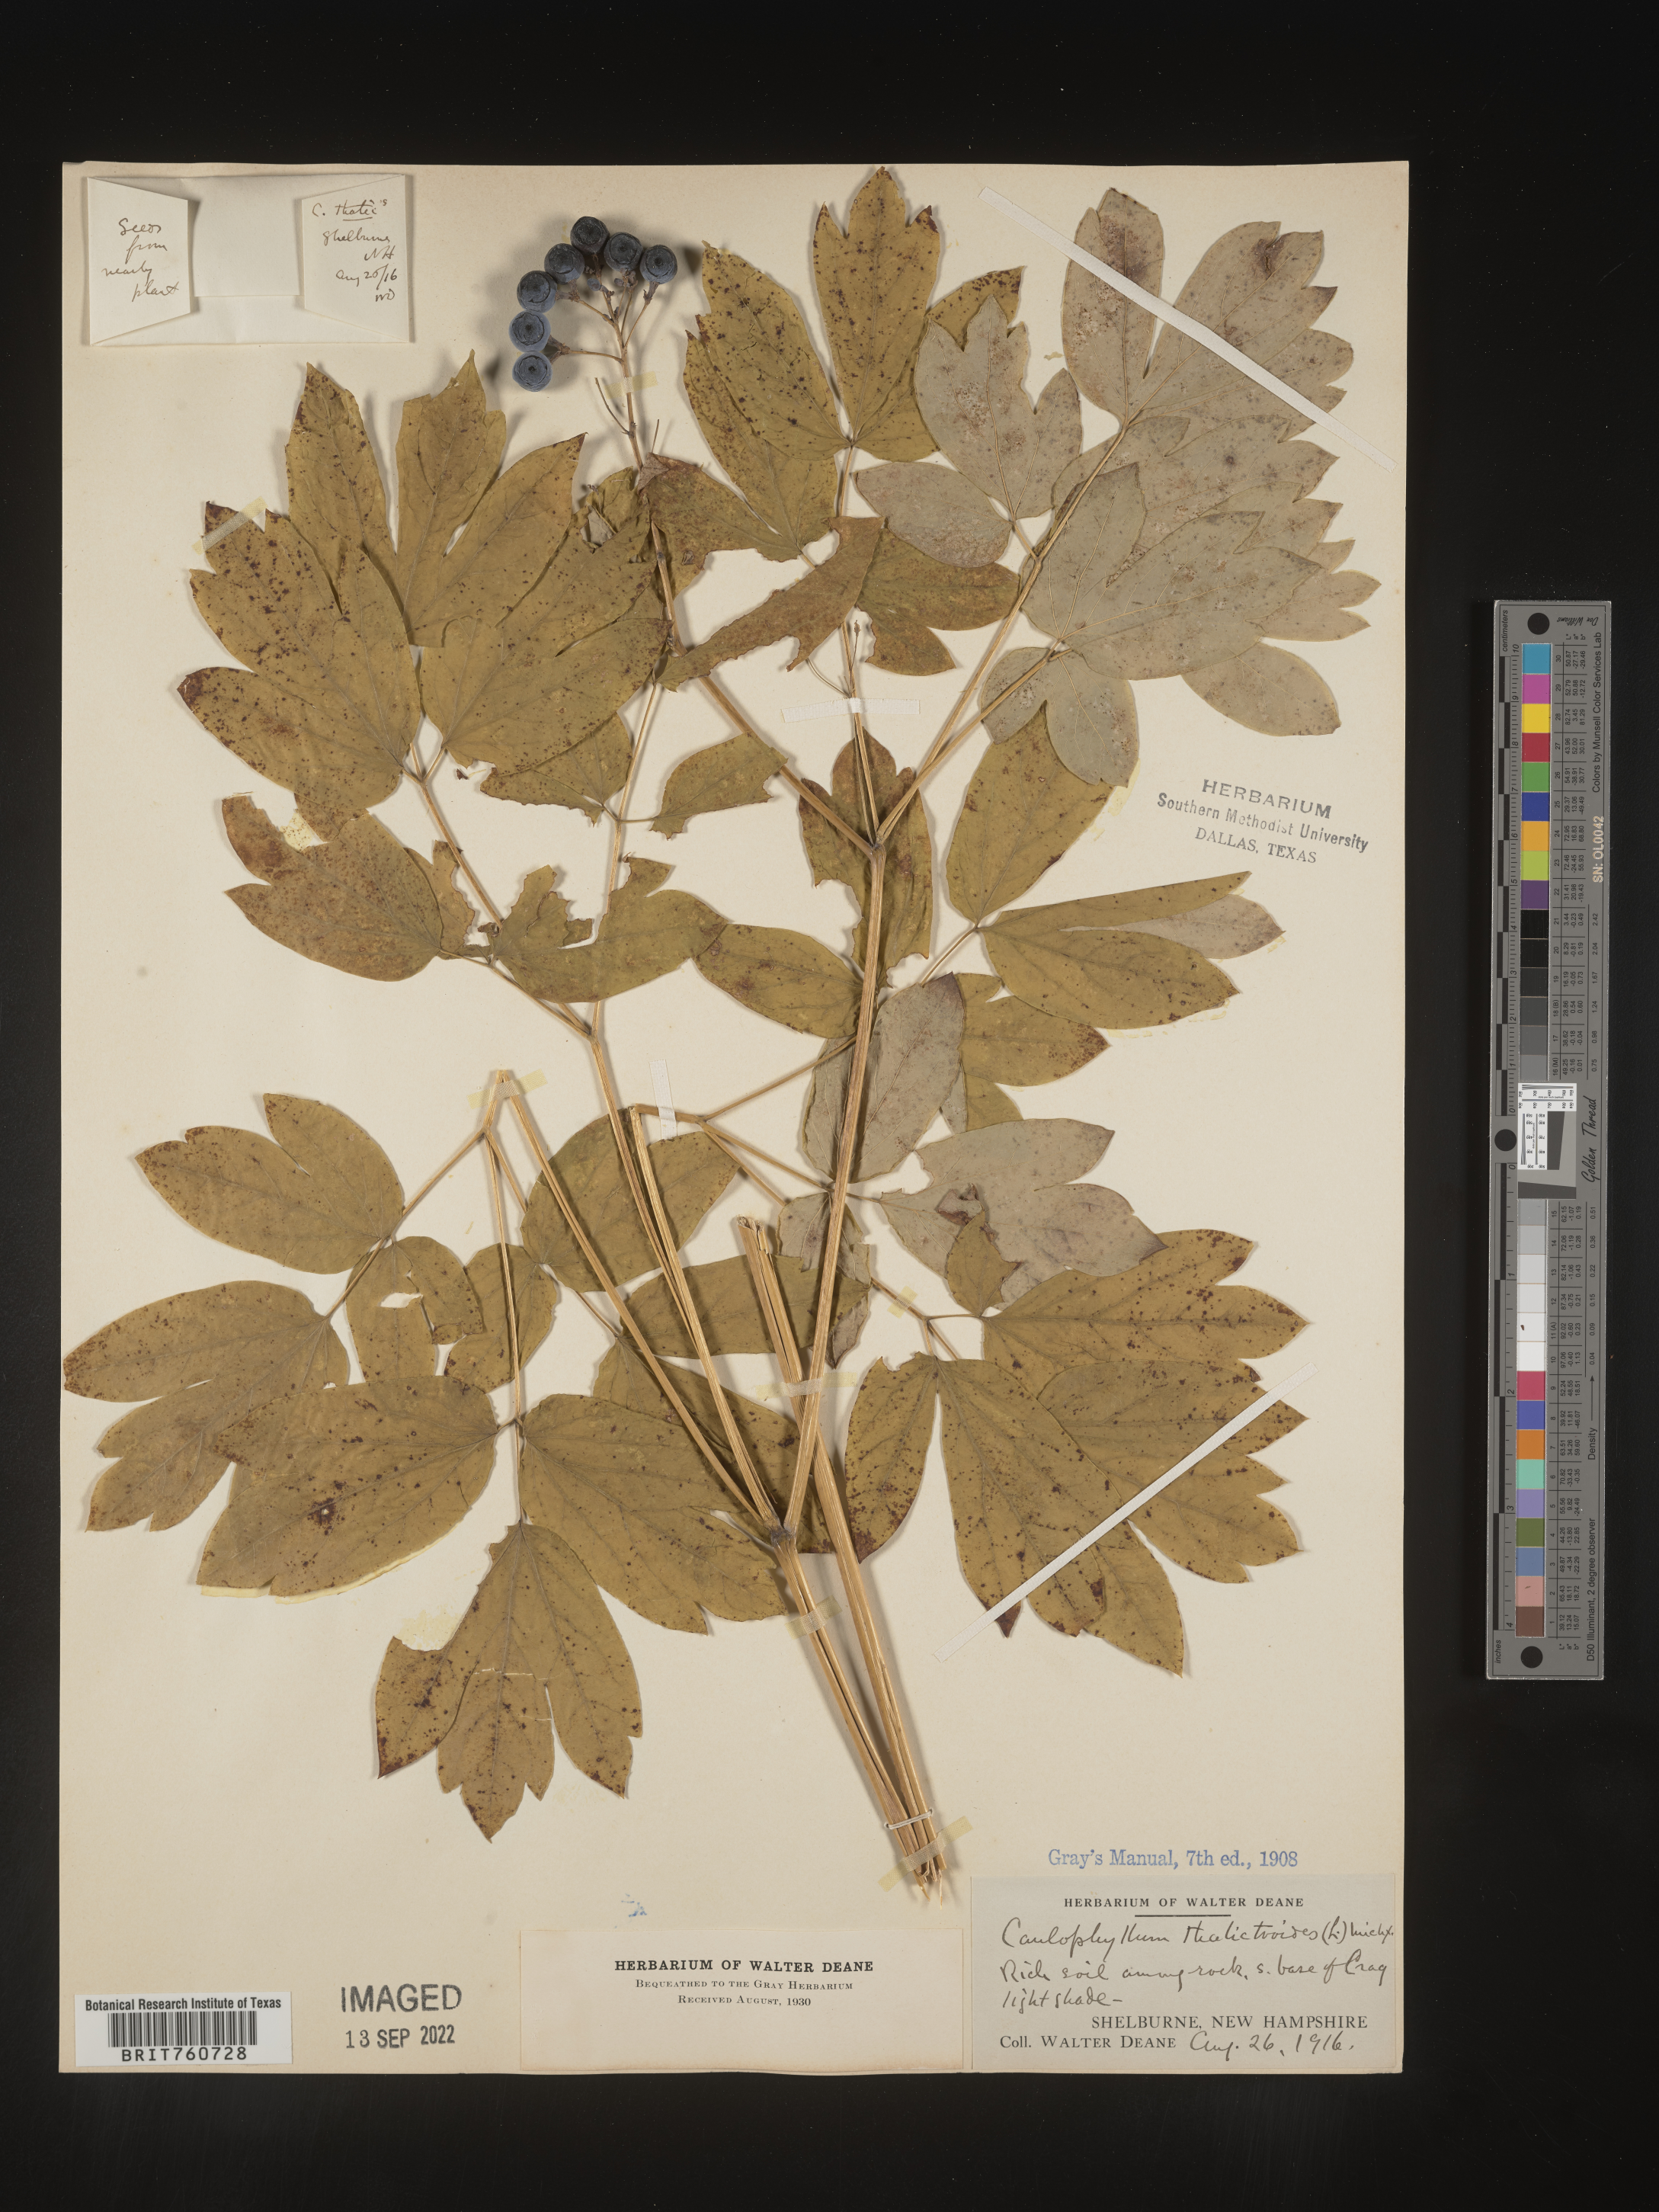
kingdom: Plantae
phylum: Tracheophyta
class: Magnoliopsida
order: Ranunculales
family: Berberidaceae
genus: Caulophyllum
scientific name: Caulophyllum thalictroides
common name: Blue cohosh
